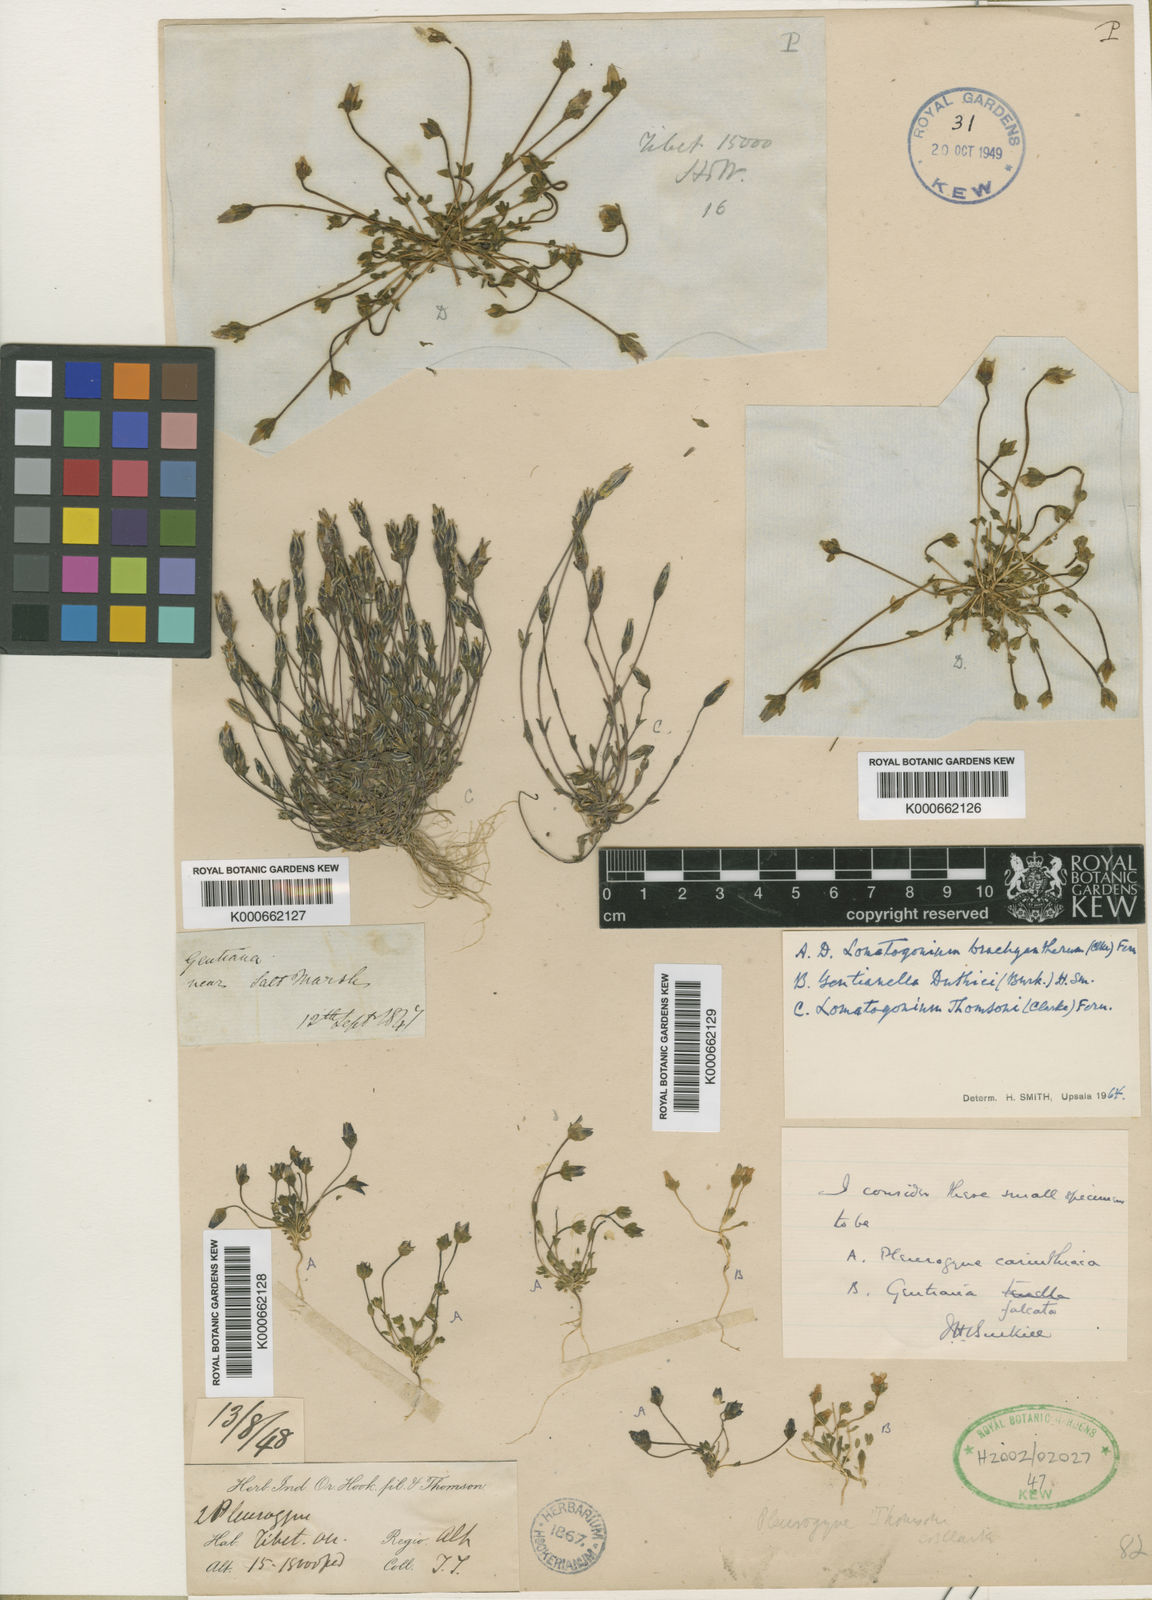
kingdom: Plantae
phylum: Tracheophyta
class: Magnoliopsida
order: Gentianales
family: Gentianaceae
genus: Lomatogonium
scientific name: Lomatogonium brachyantherum
